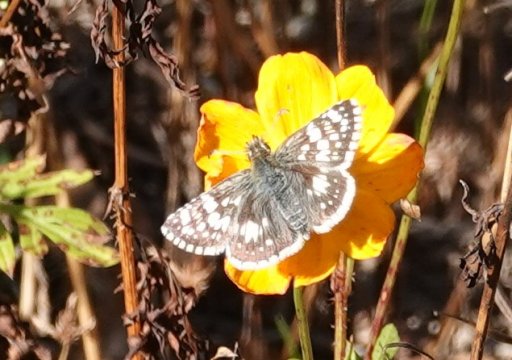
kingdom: Animalia
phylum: Arthropoda
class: Insecta
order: Lepidoptera
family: Hesperiidae
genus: Pyrgus
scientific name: Pyrgus communis
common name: White Checkered-Skipper
